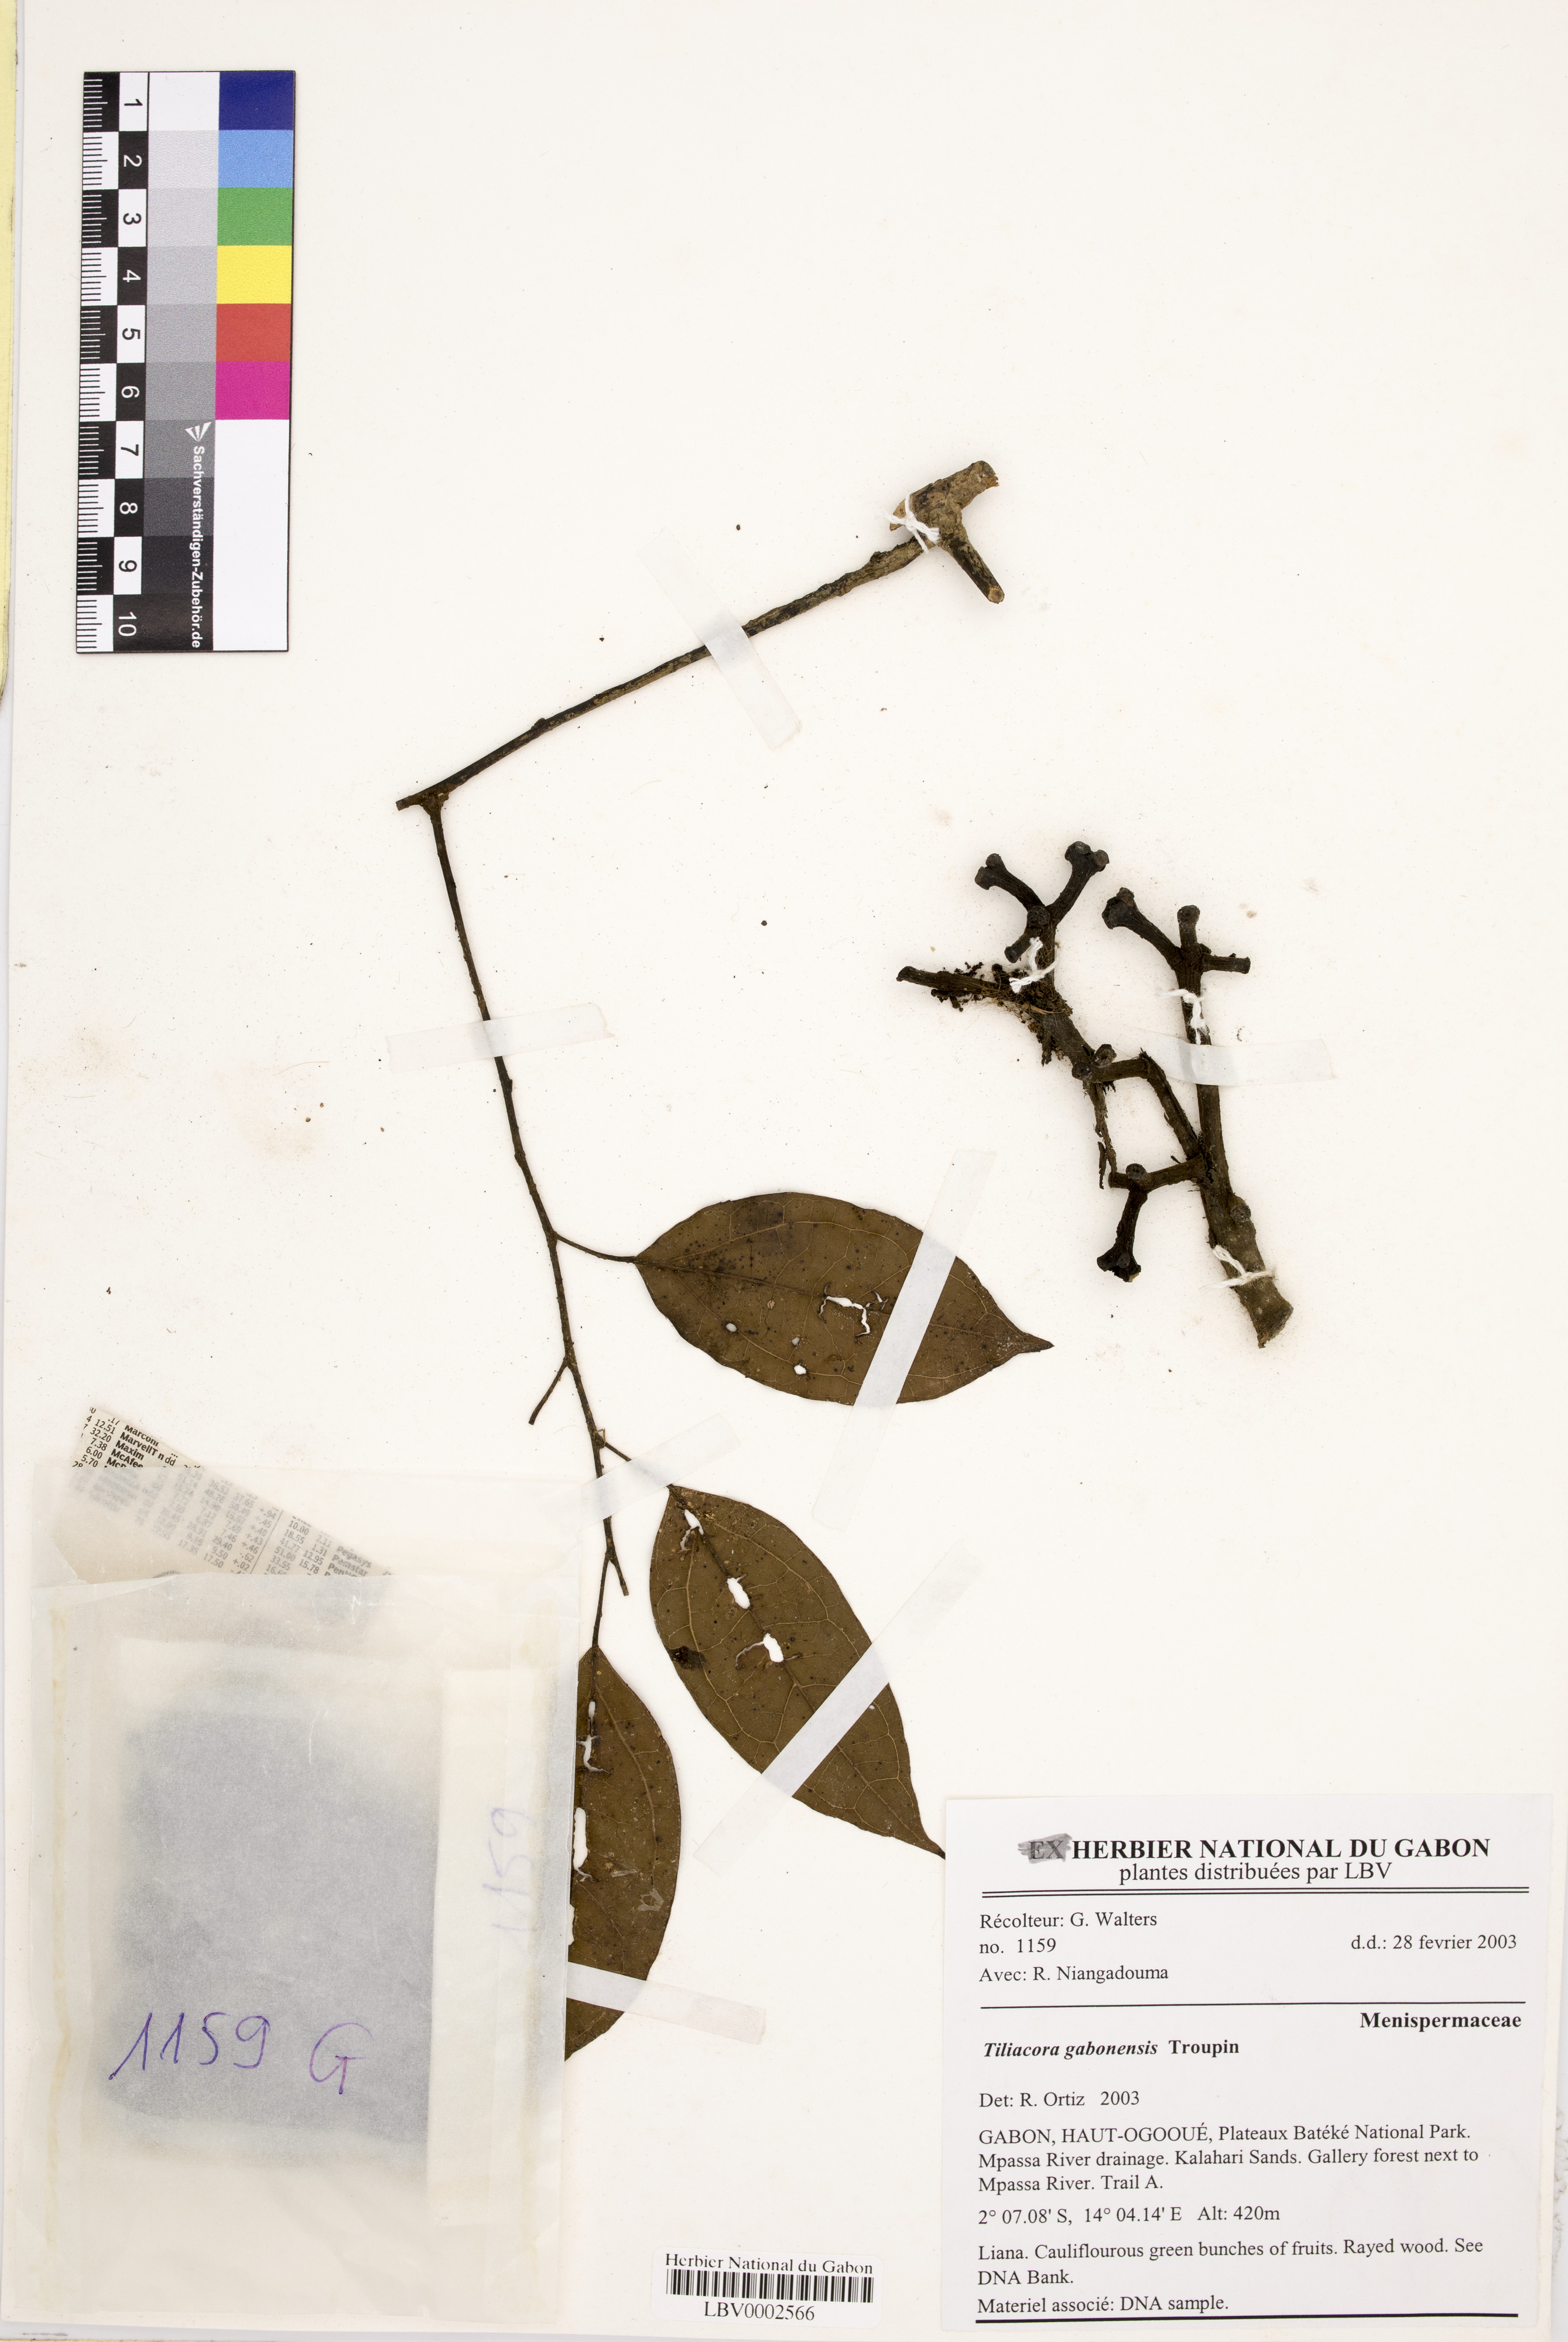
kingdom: Plantae
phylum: Tracheophyta
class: Magnoliopsida
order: Ranunculales
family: Menispermaceae
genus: Tiliacora
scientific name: Tiliacora gabonensis
